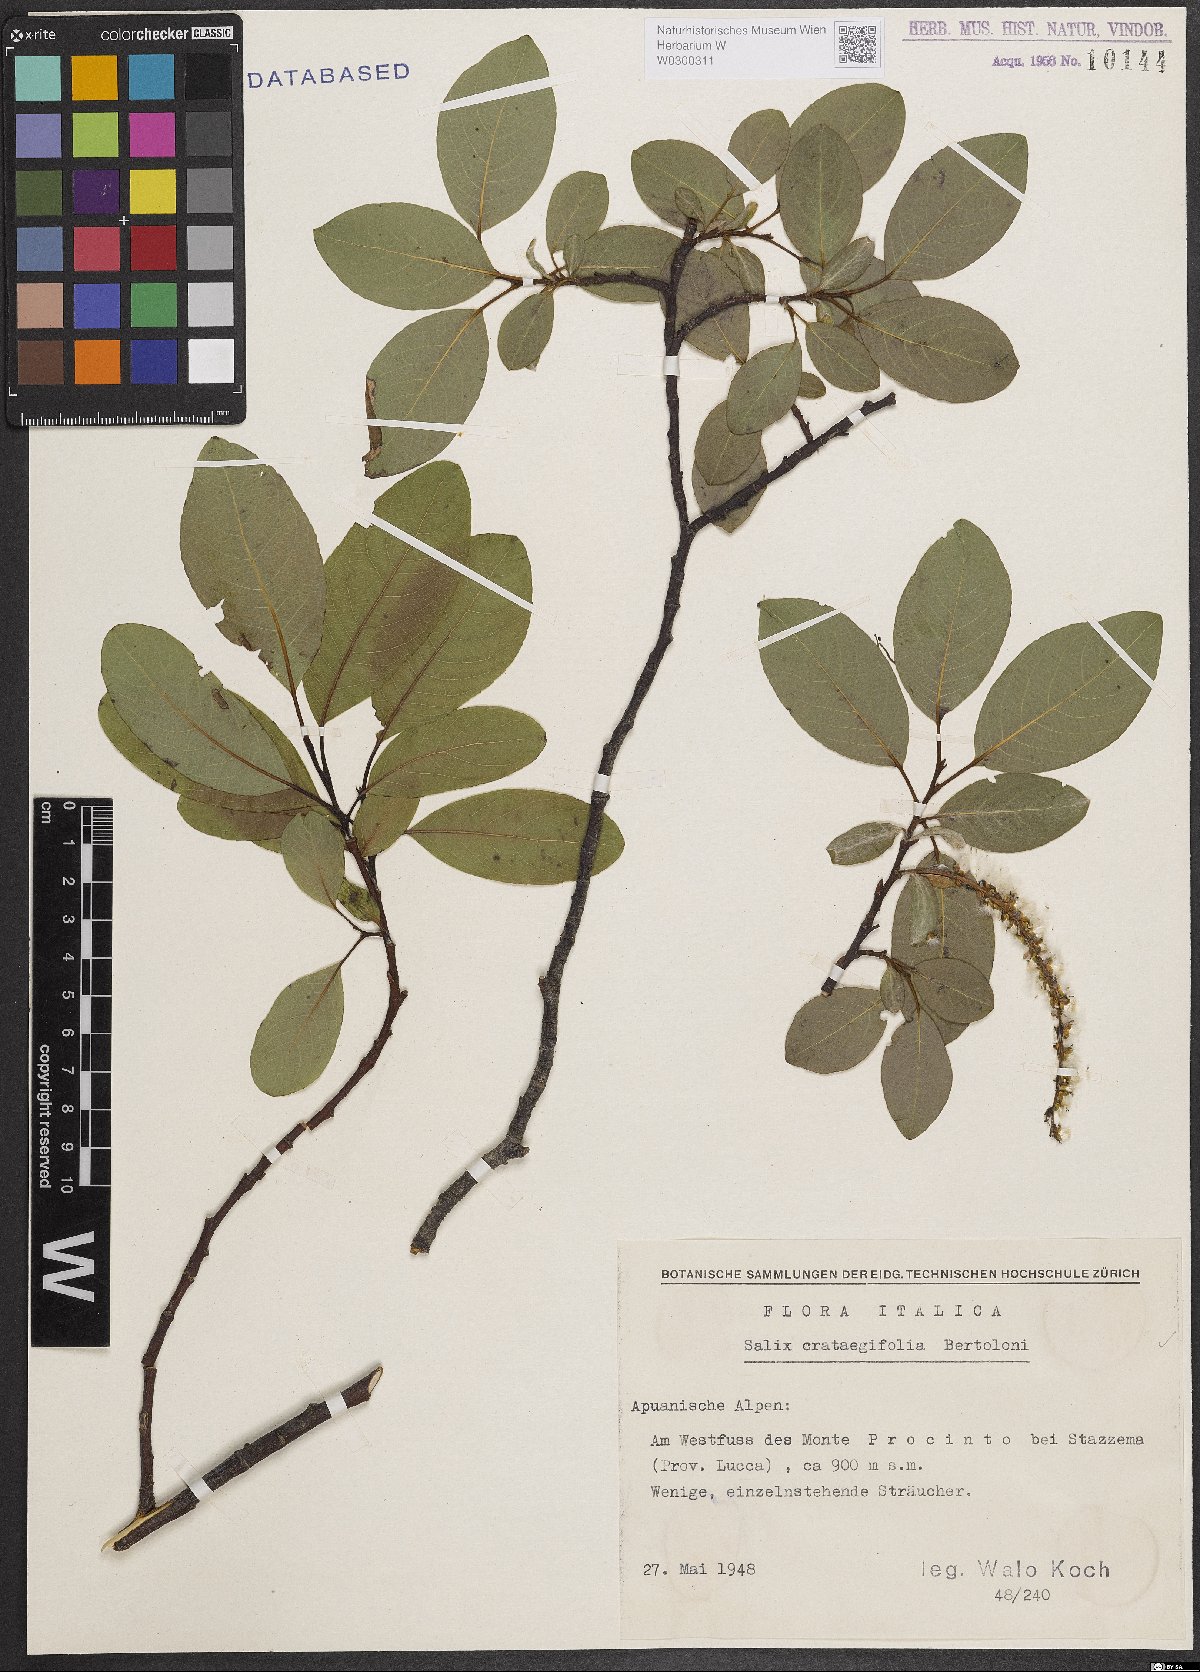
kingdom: Plantae
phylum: Tracheophyta
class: Magnoliopsida
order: Malpighiales
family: Salicaceae
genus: Salix
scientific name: Salix crataegifolia
